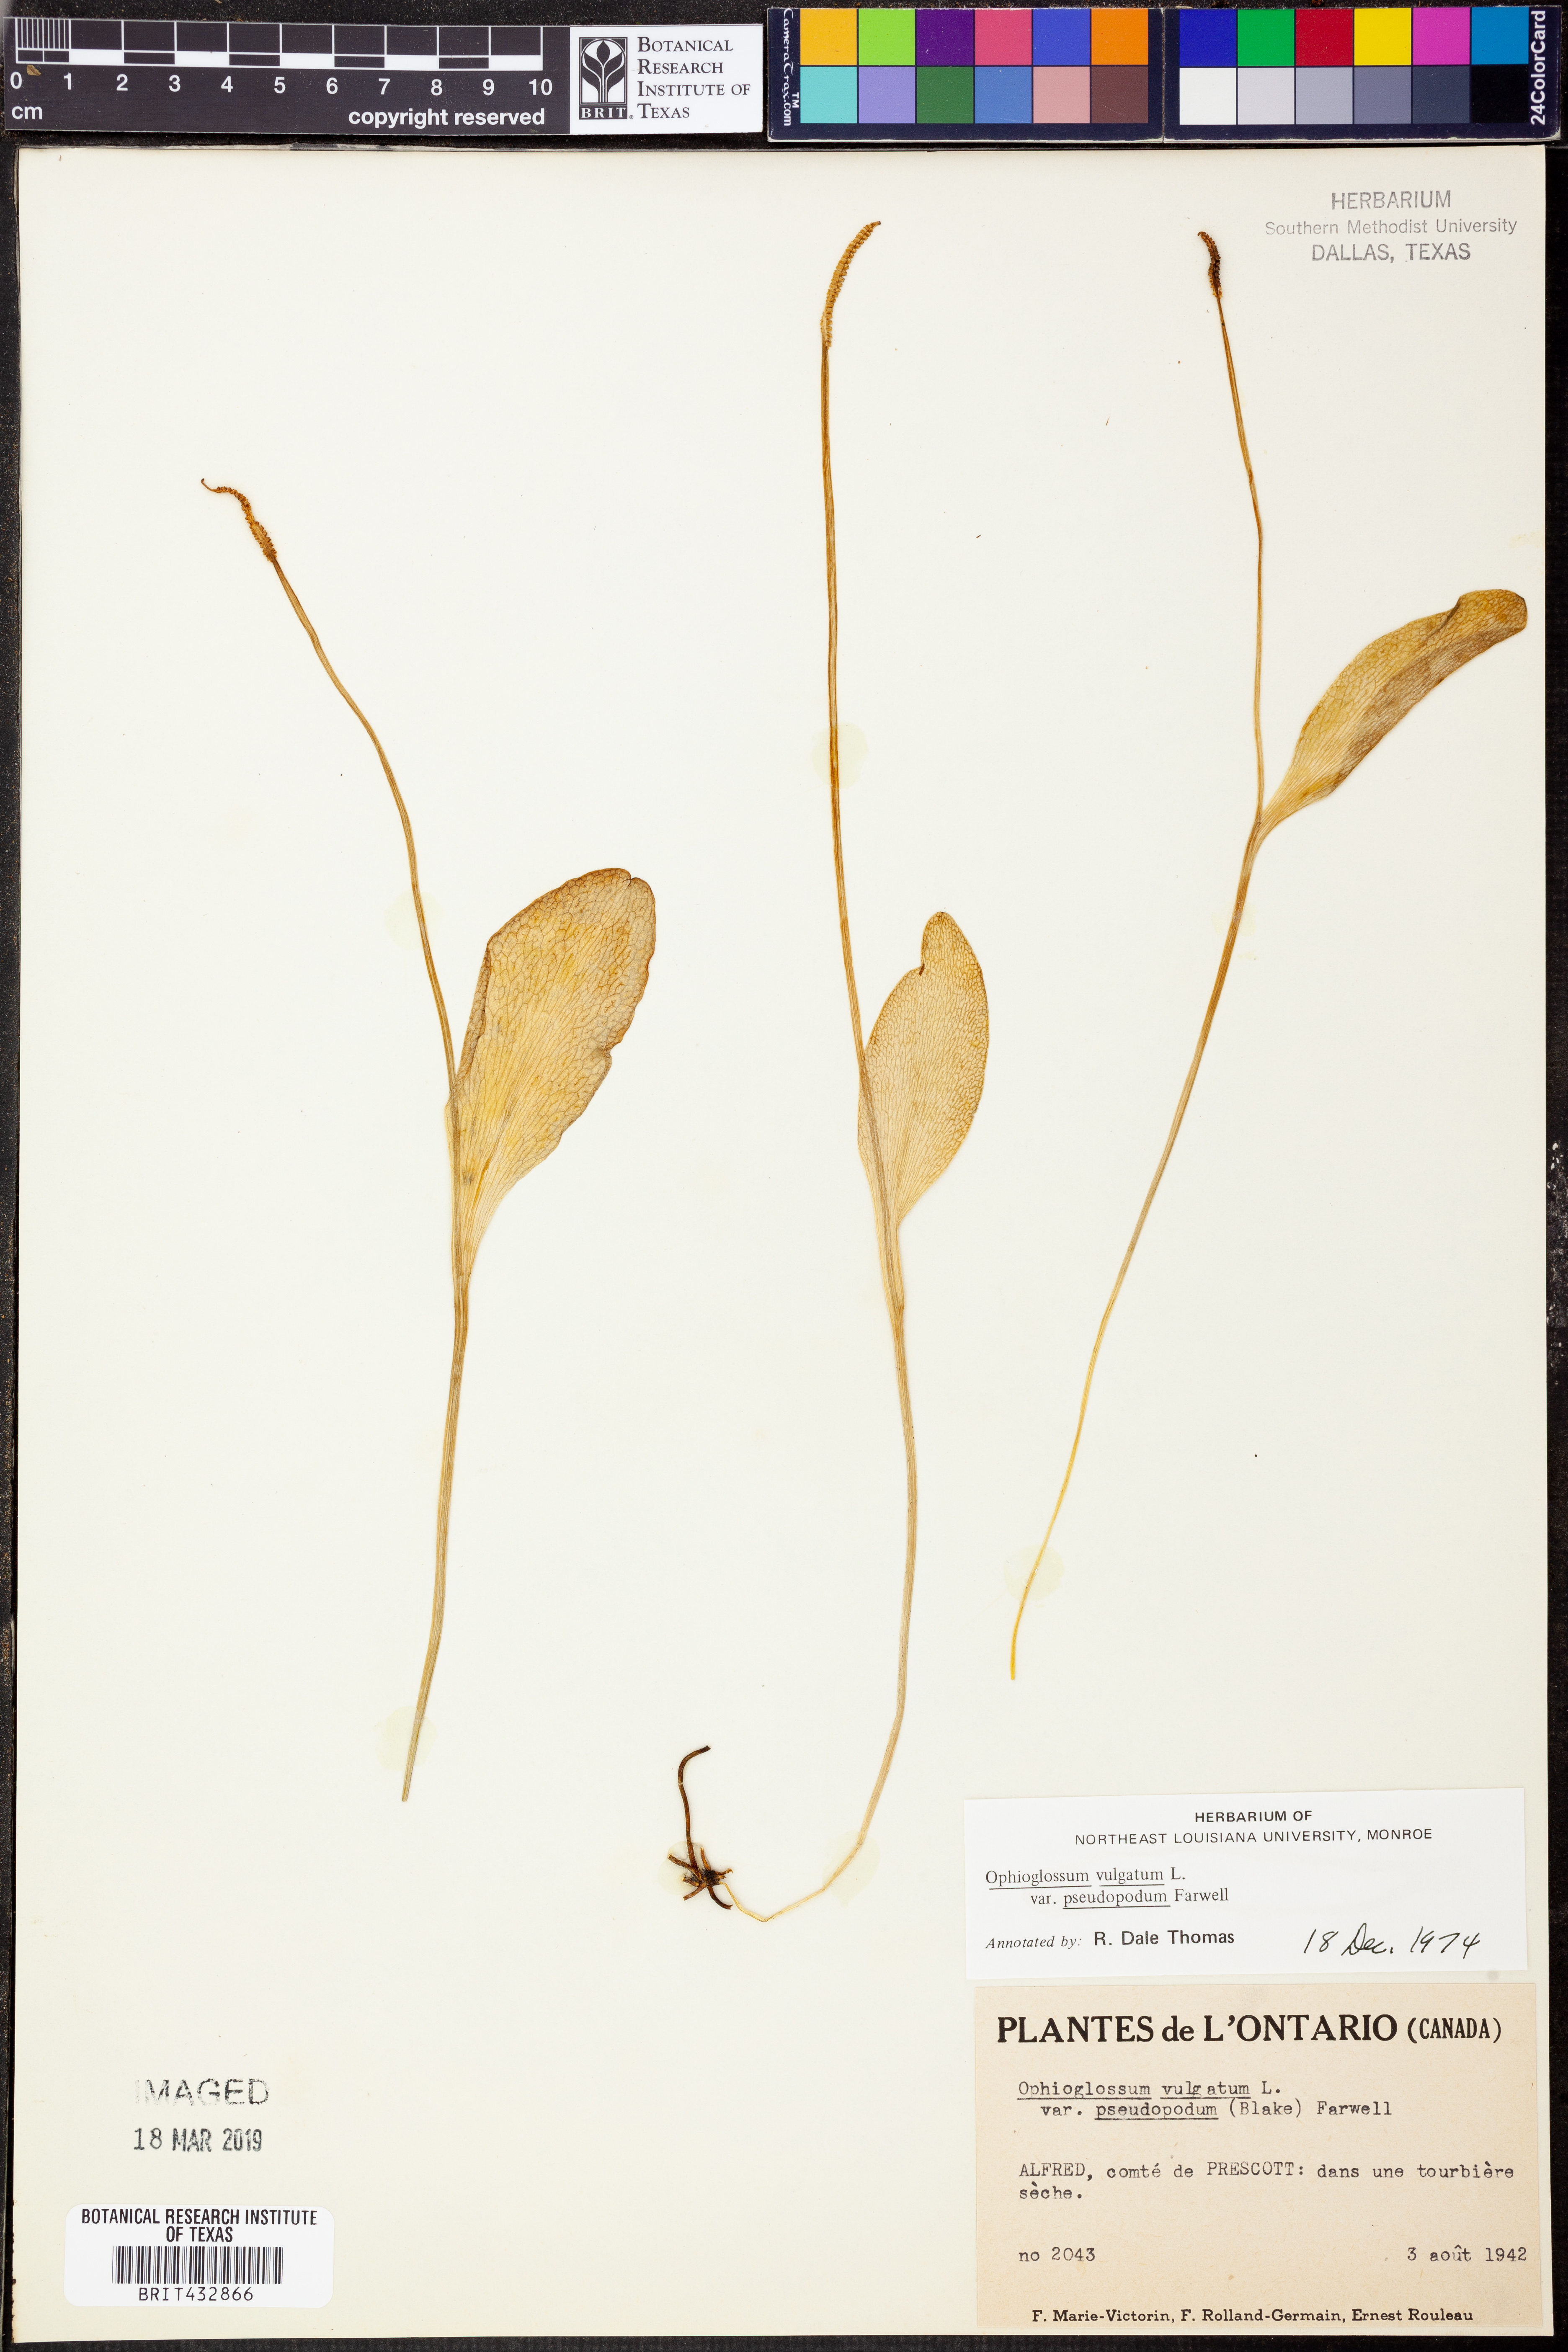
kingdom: Plantae
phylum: Tracheophyta
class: Polypodiopsida
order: Ophioglossales
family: Ophioglossaceae
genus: Ophioglossum
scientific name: Ophioglossum pusillum
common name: Northern adder's-tongue
